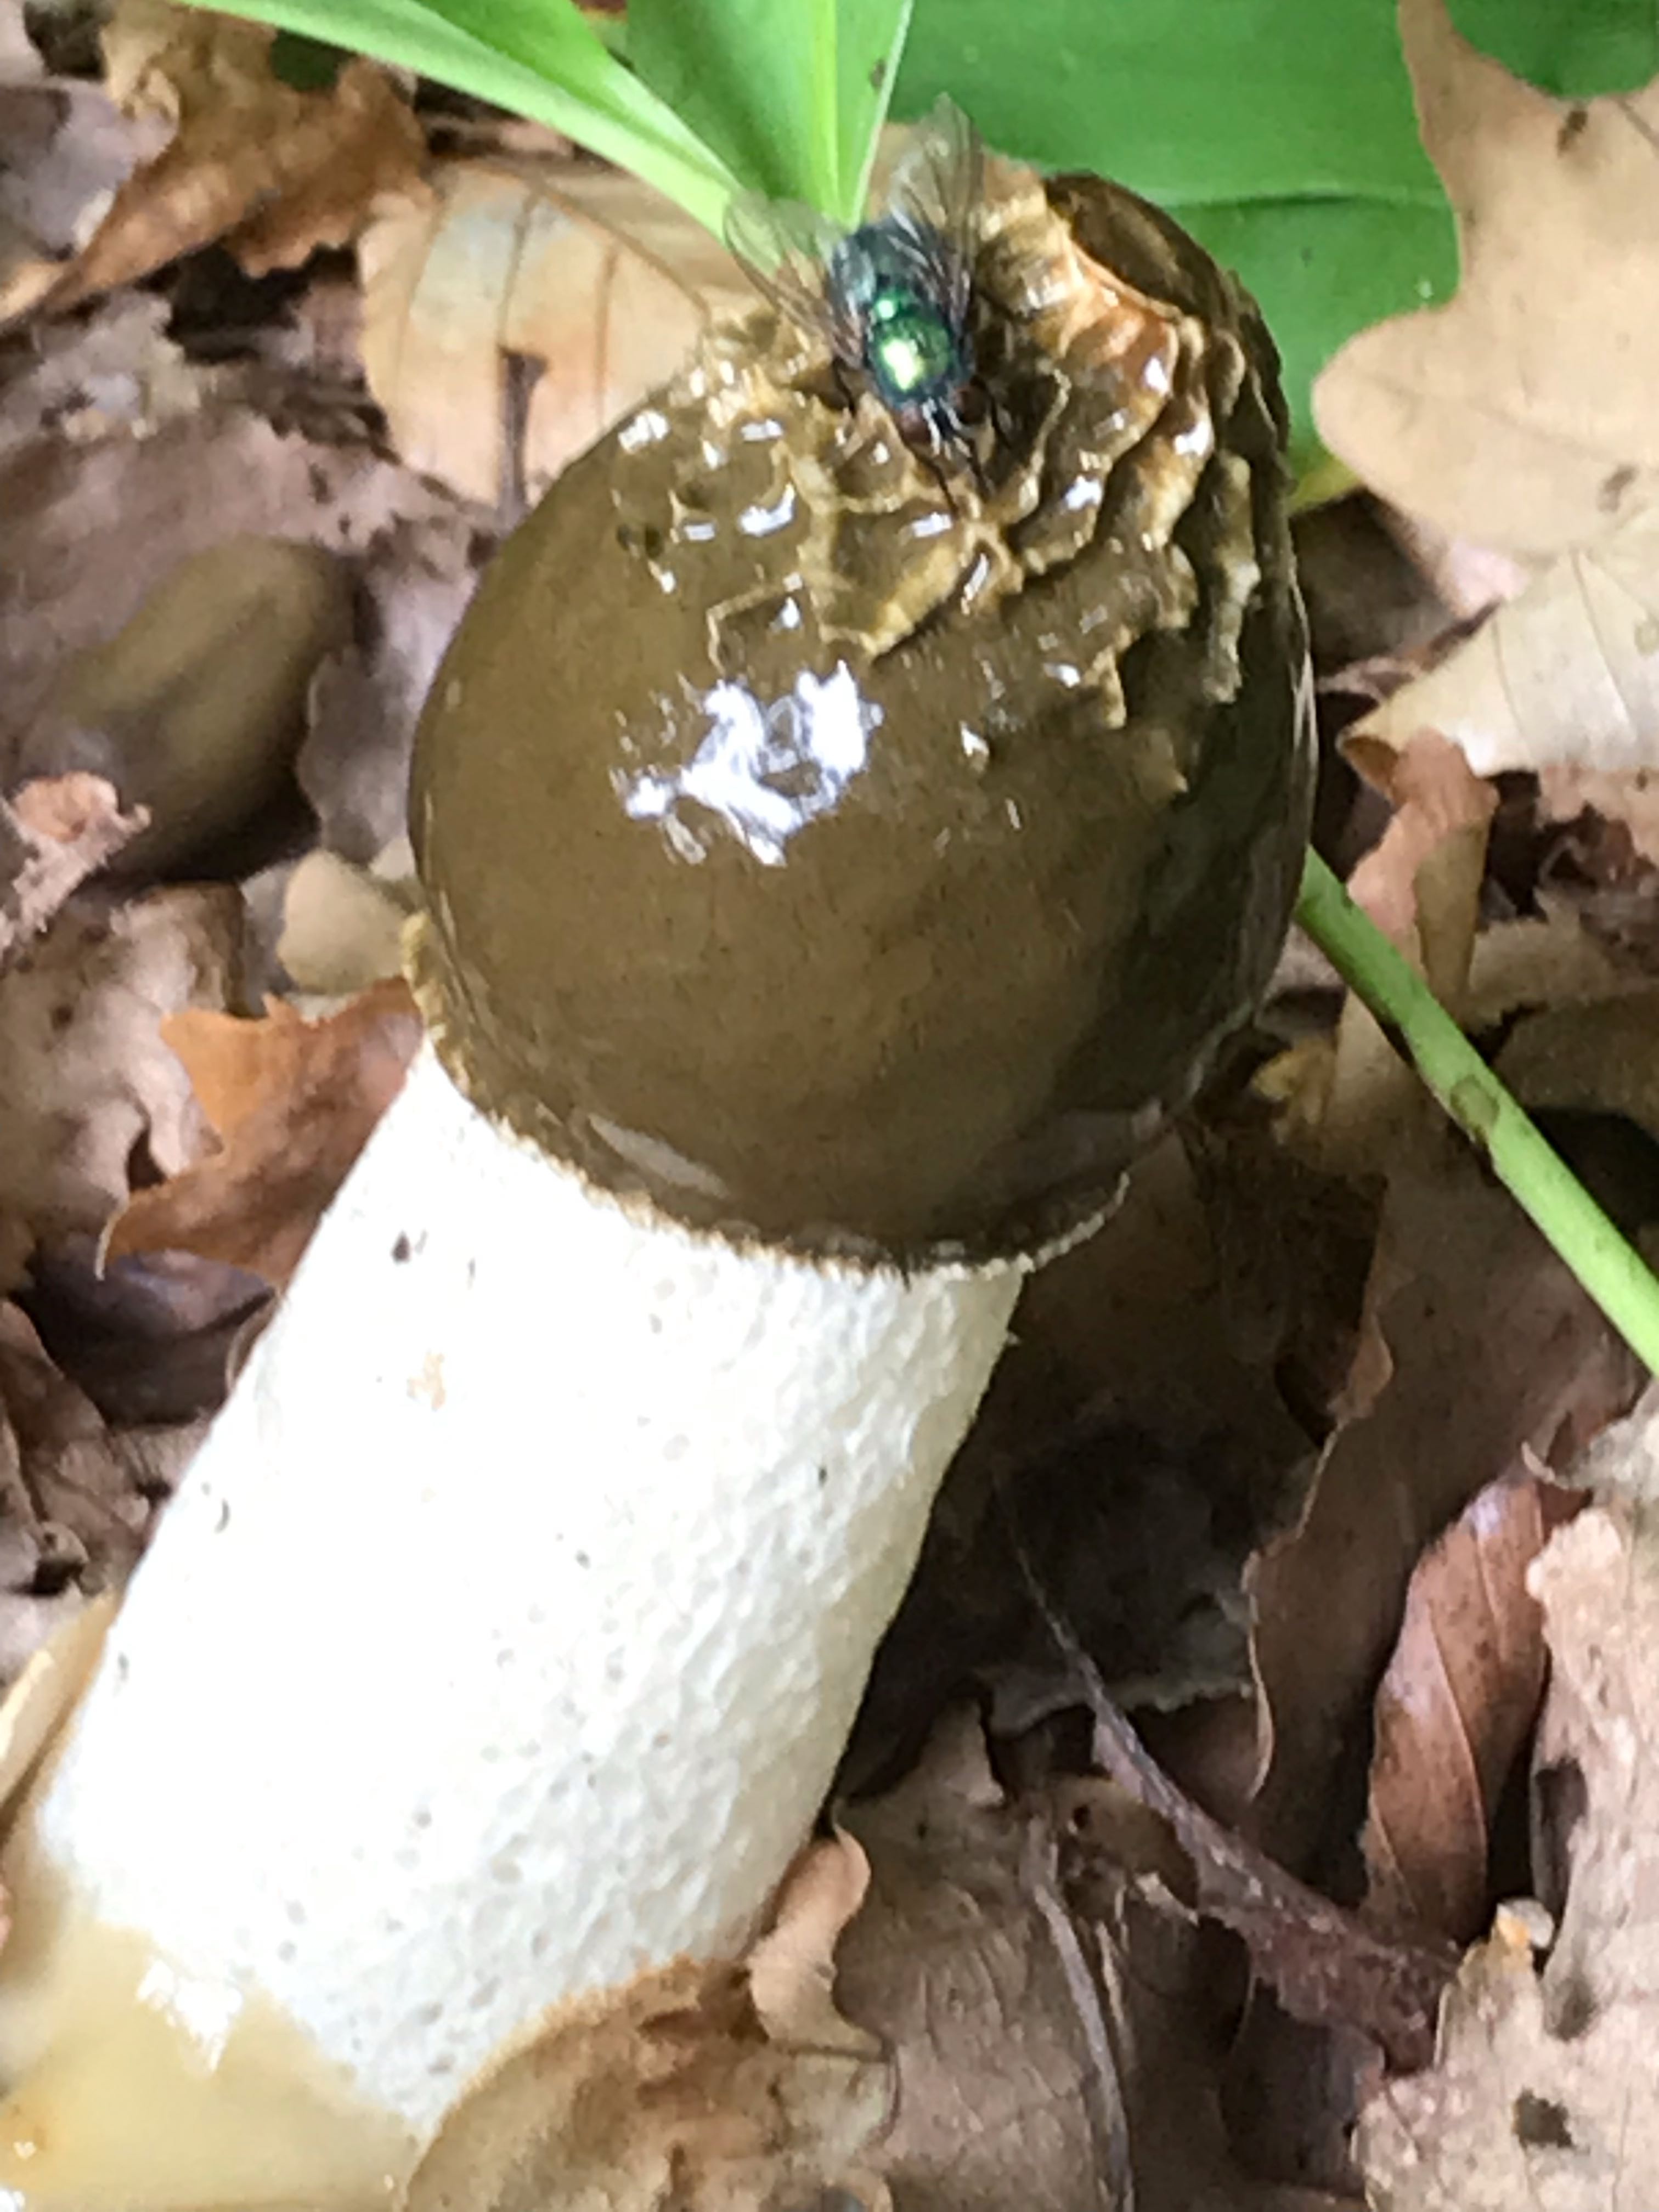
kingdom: Fungi
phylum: Basidiomycota
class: Agaricomycetes
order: Phallales
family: Phallaceae
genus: Phallus
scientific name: Phallus impudicus
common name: almindelig stinksvamp
